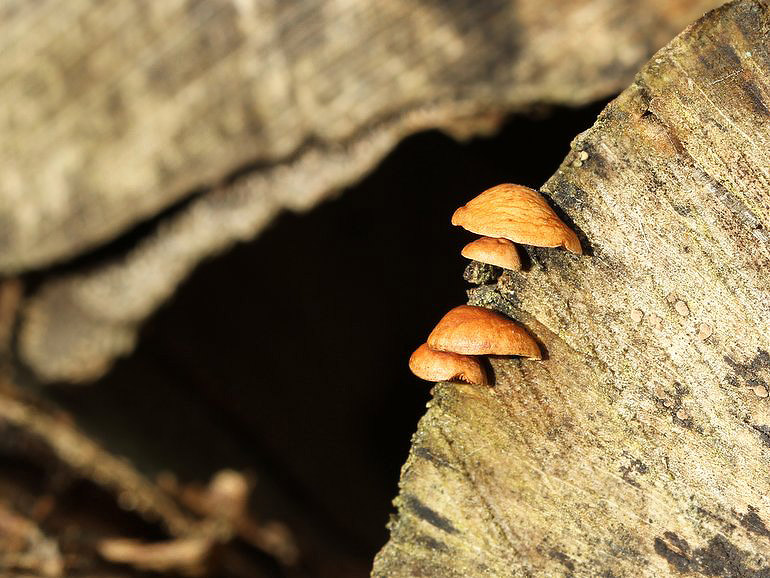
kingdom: Fungi
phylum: Basidiomycota
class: Agaricomycetes
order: Agaricales
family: Strophariaceae
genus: Deconica
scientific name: Deconica horizontalis
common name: ved-stråhat
